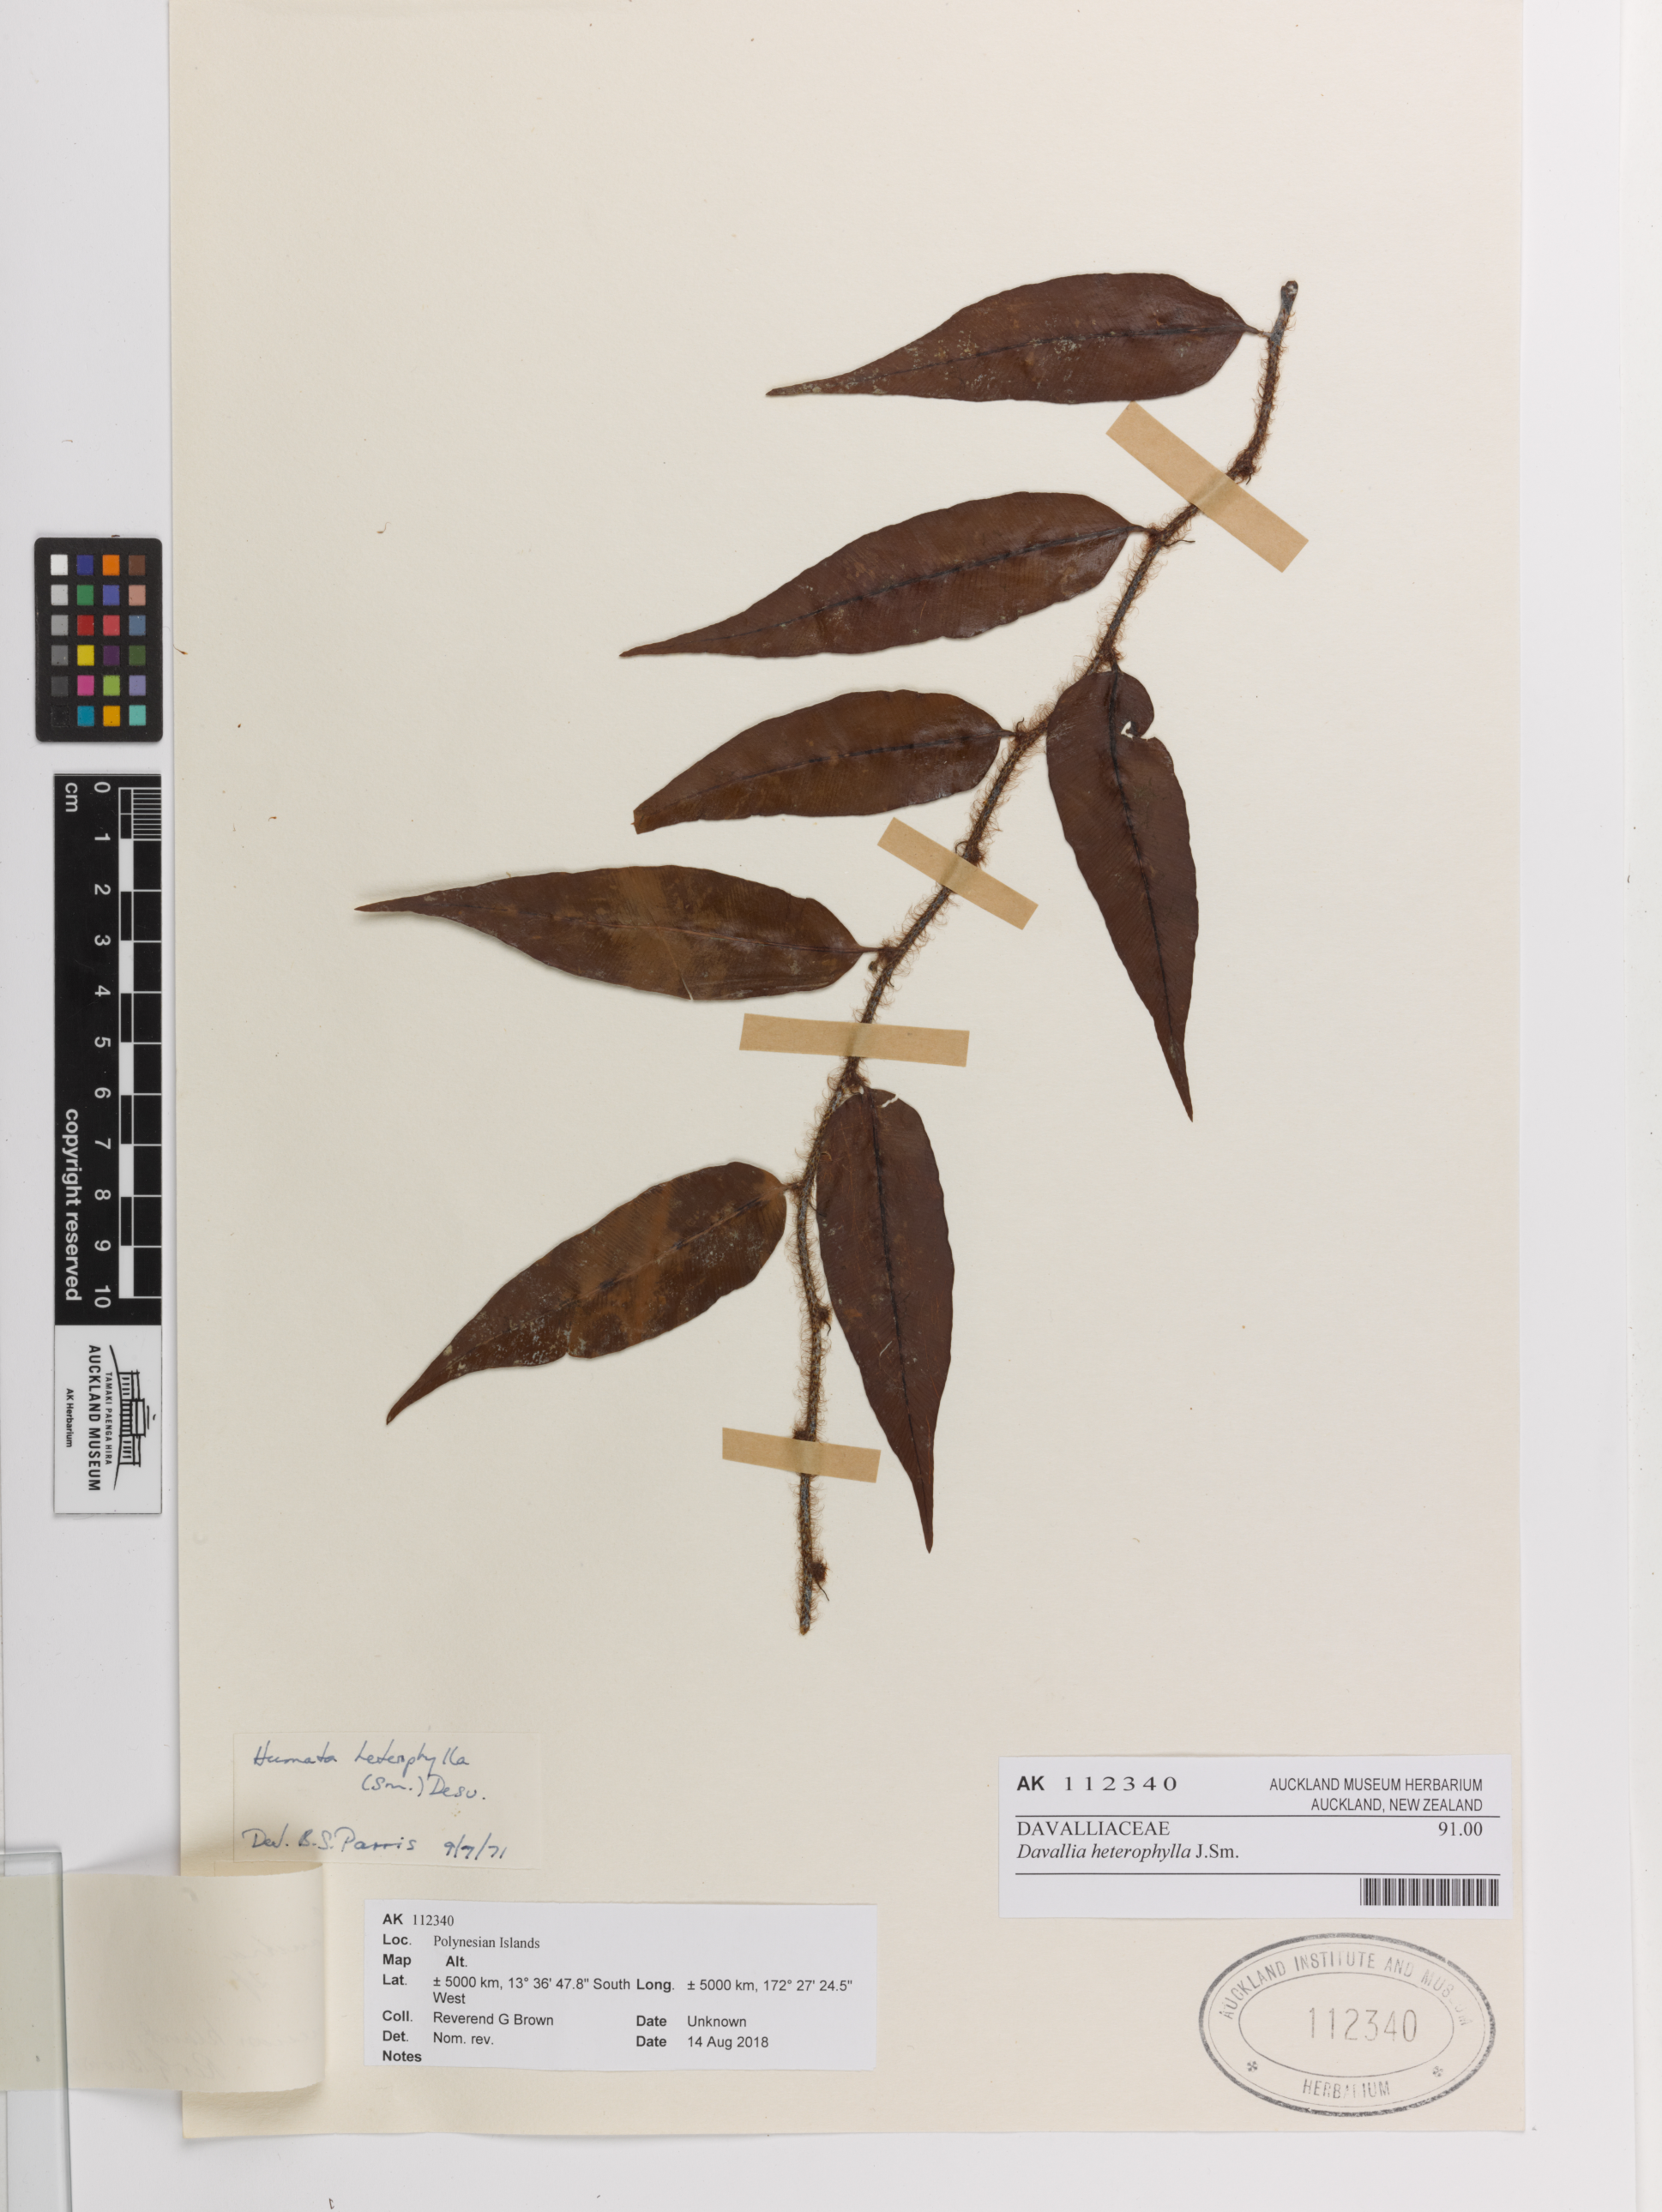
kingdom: Plantae
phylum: Tracheophyta
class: Polypodiopsida
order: Polypodiales
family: Davalliaceae
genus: Davallia
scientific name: Davallia heterophylla
